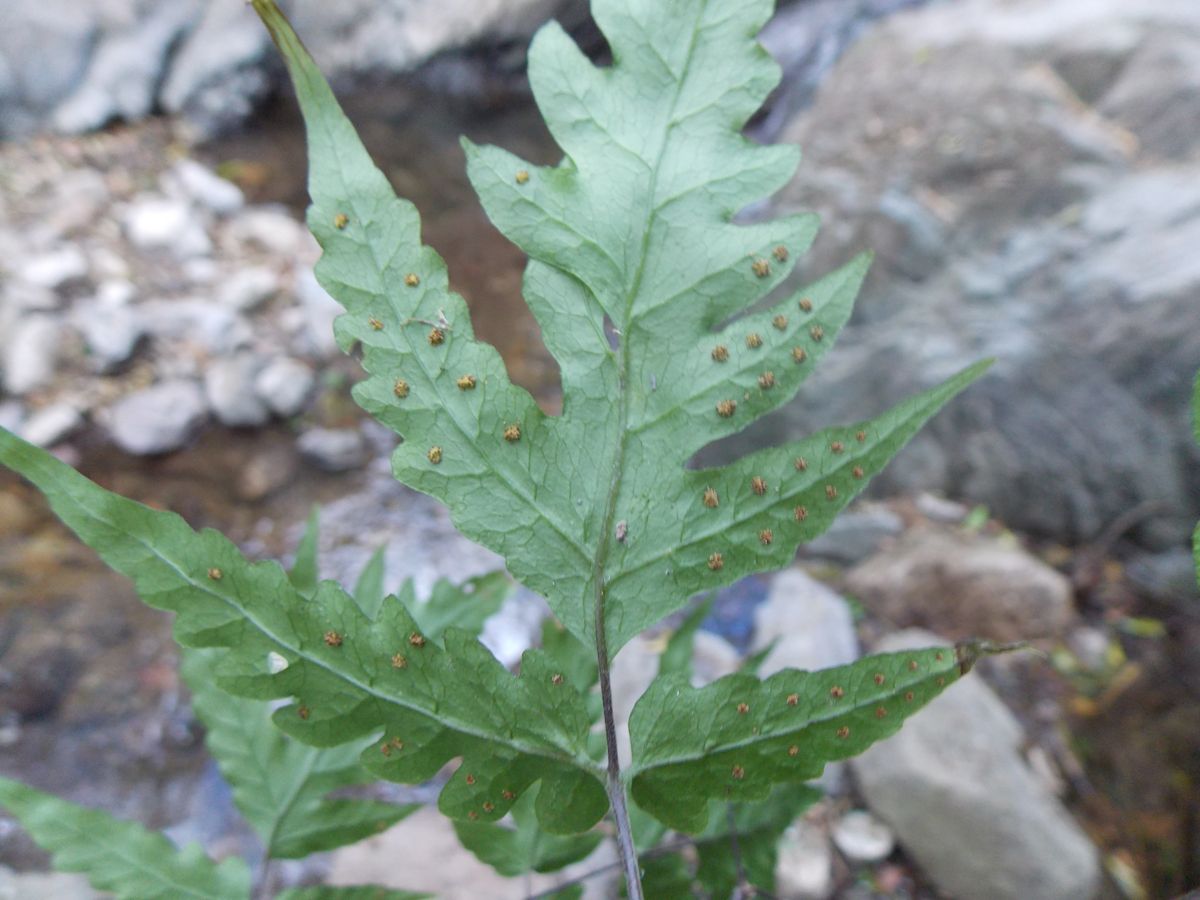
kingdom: Plantae
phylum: Tracheophyta
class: Polypodiopsida
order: Polypodiales
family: Tectariaceae
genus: Tectaria
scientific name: Tectaria mexicana
